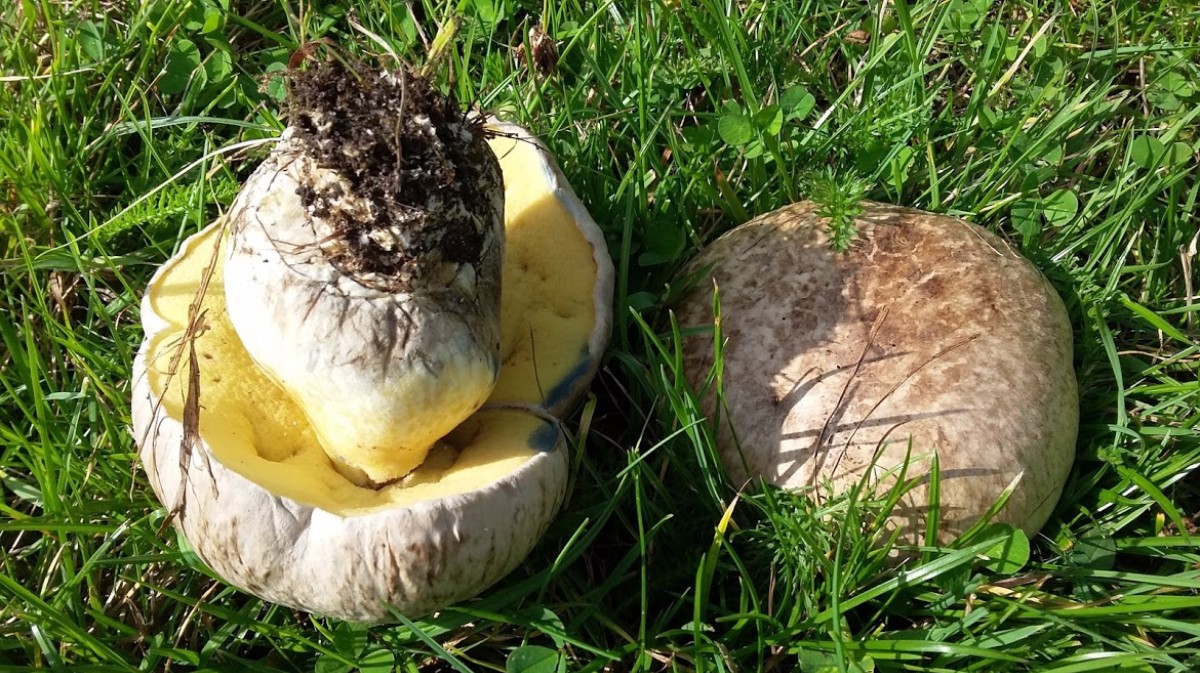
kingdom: Fungi
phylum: Basidiomycota
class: Agaricomycetes
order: Boletales
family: Boletaceae
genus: Caloboletus
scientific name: Caloboletus radicans
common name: rod-rørhat
